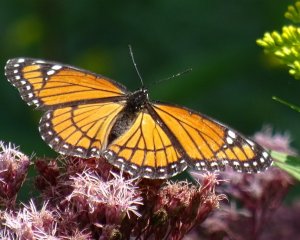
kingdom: Animalia
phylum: Arthropoda
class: Insecta
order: Lepidoptera
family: Nymphalidae
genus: Limenitis
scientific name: Limenitis archippus
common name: Viceroy
